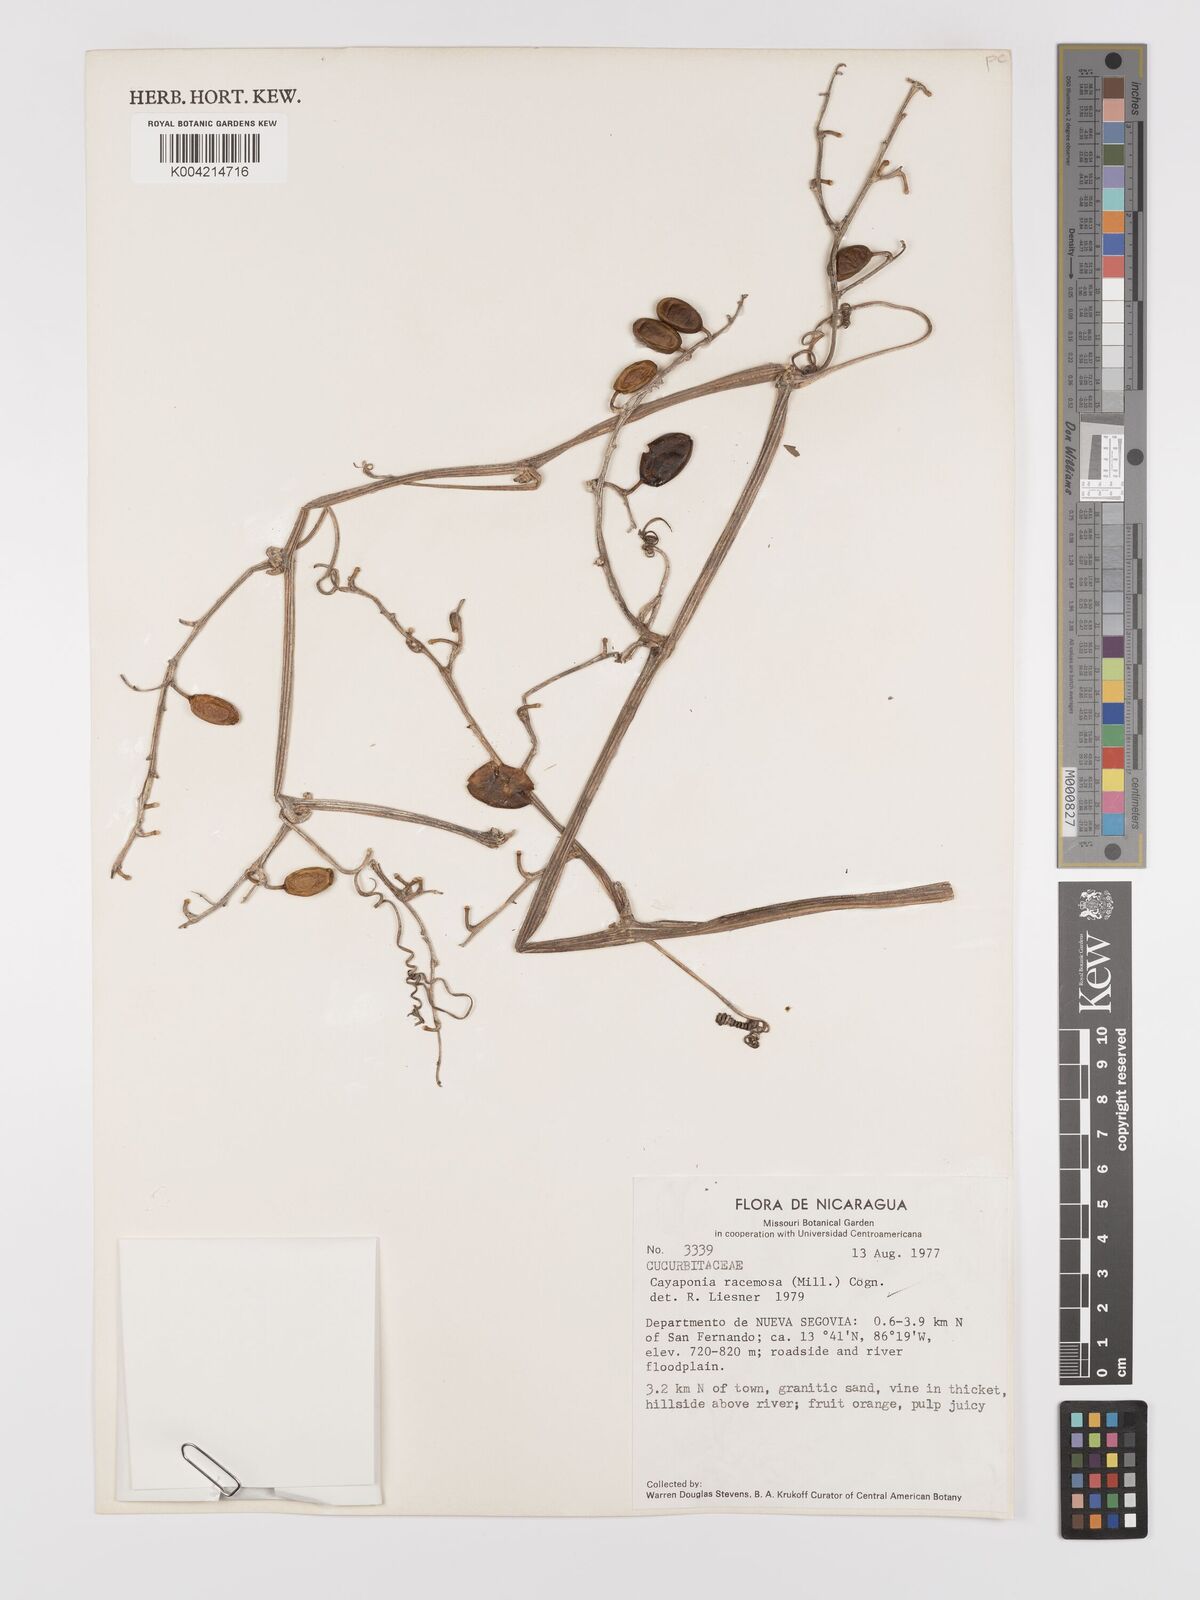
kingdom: Plantae
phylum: Tracheophyta
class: Magnoliopsida
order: Cucurbitales
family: Cucurbitaceae
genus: Cayaponia
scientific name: Cayaponia racemosa
